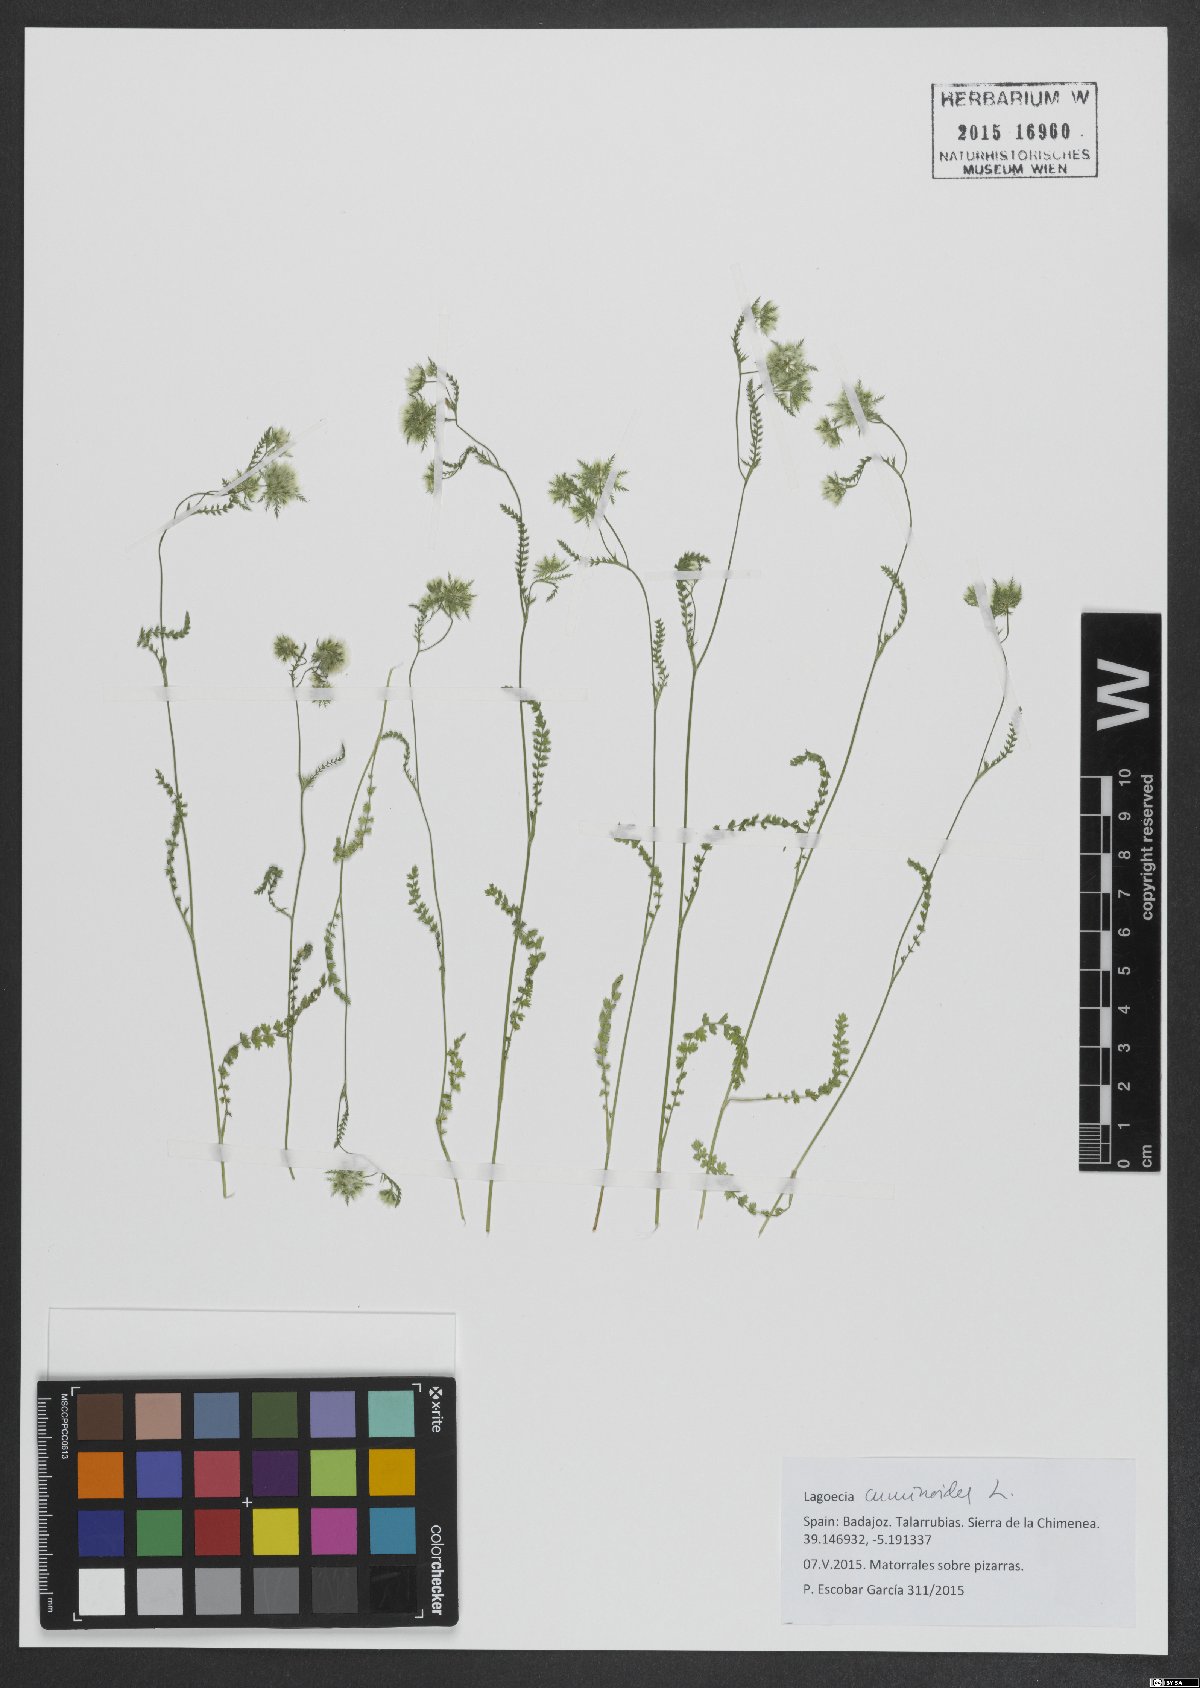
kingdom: Plantae
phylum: Tracheophyta
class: Magnoliopsida
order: Apiales
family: Apiaceae
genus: Lagoecia
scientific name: Lagoecia cuminoides
